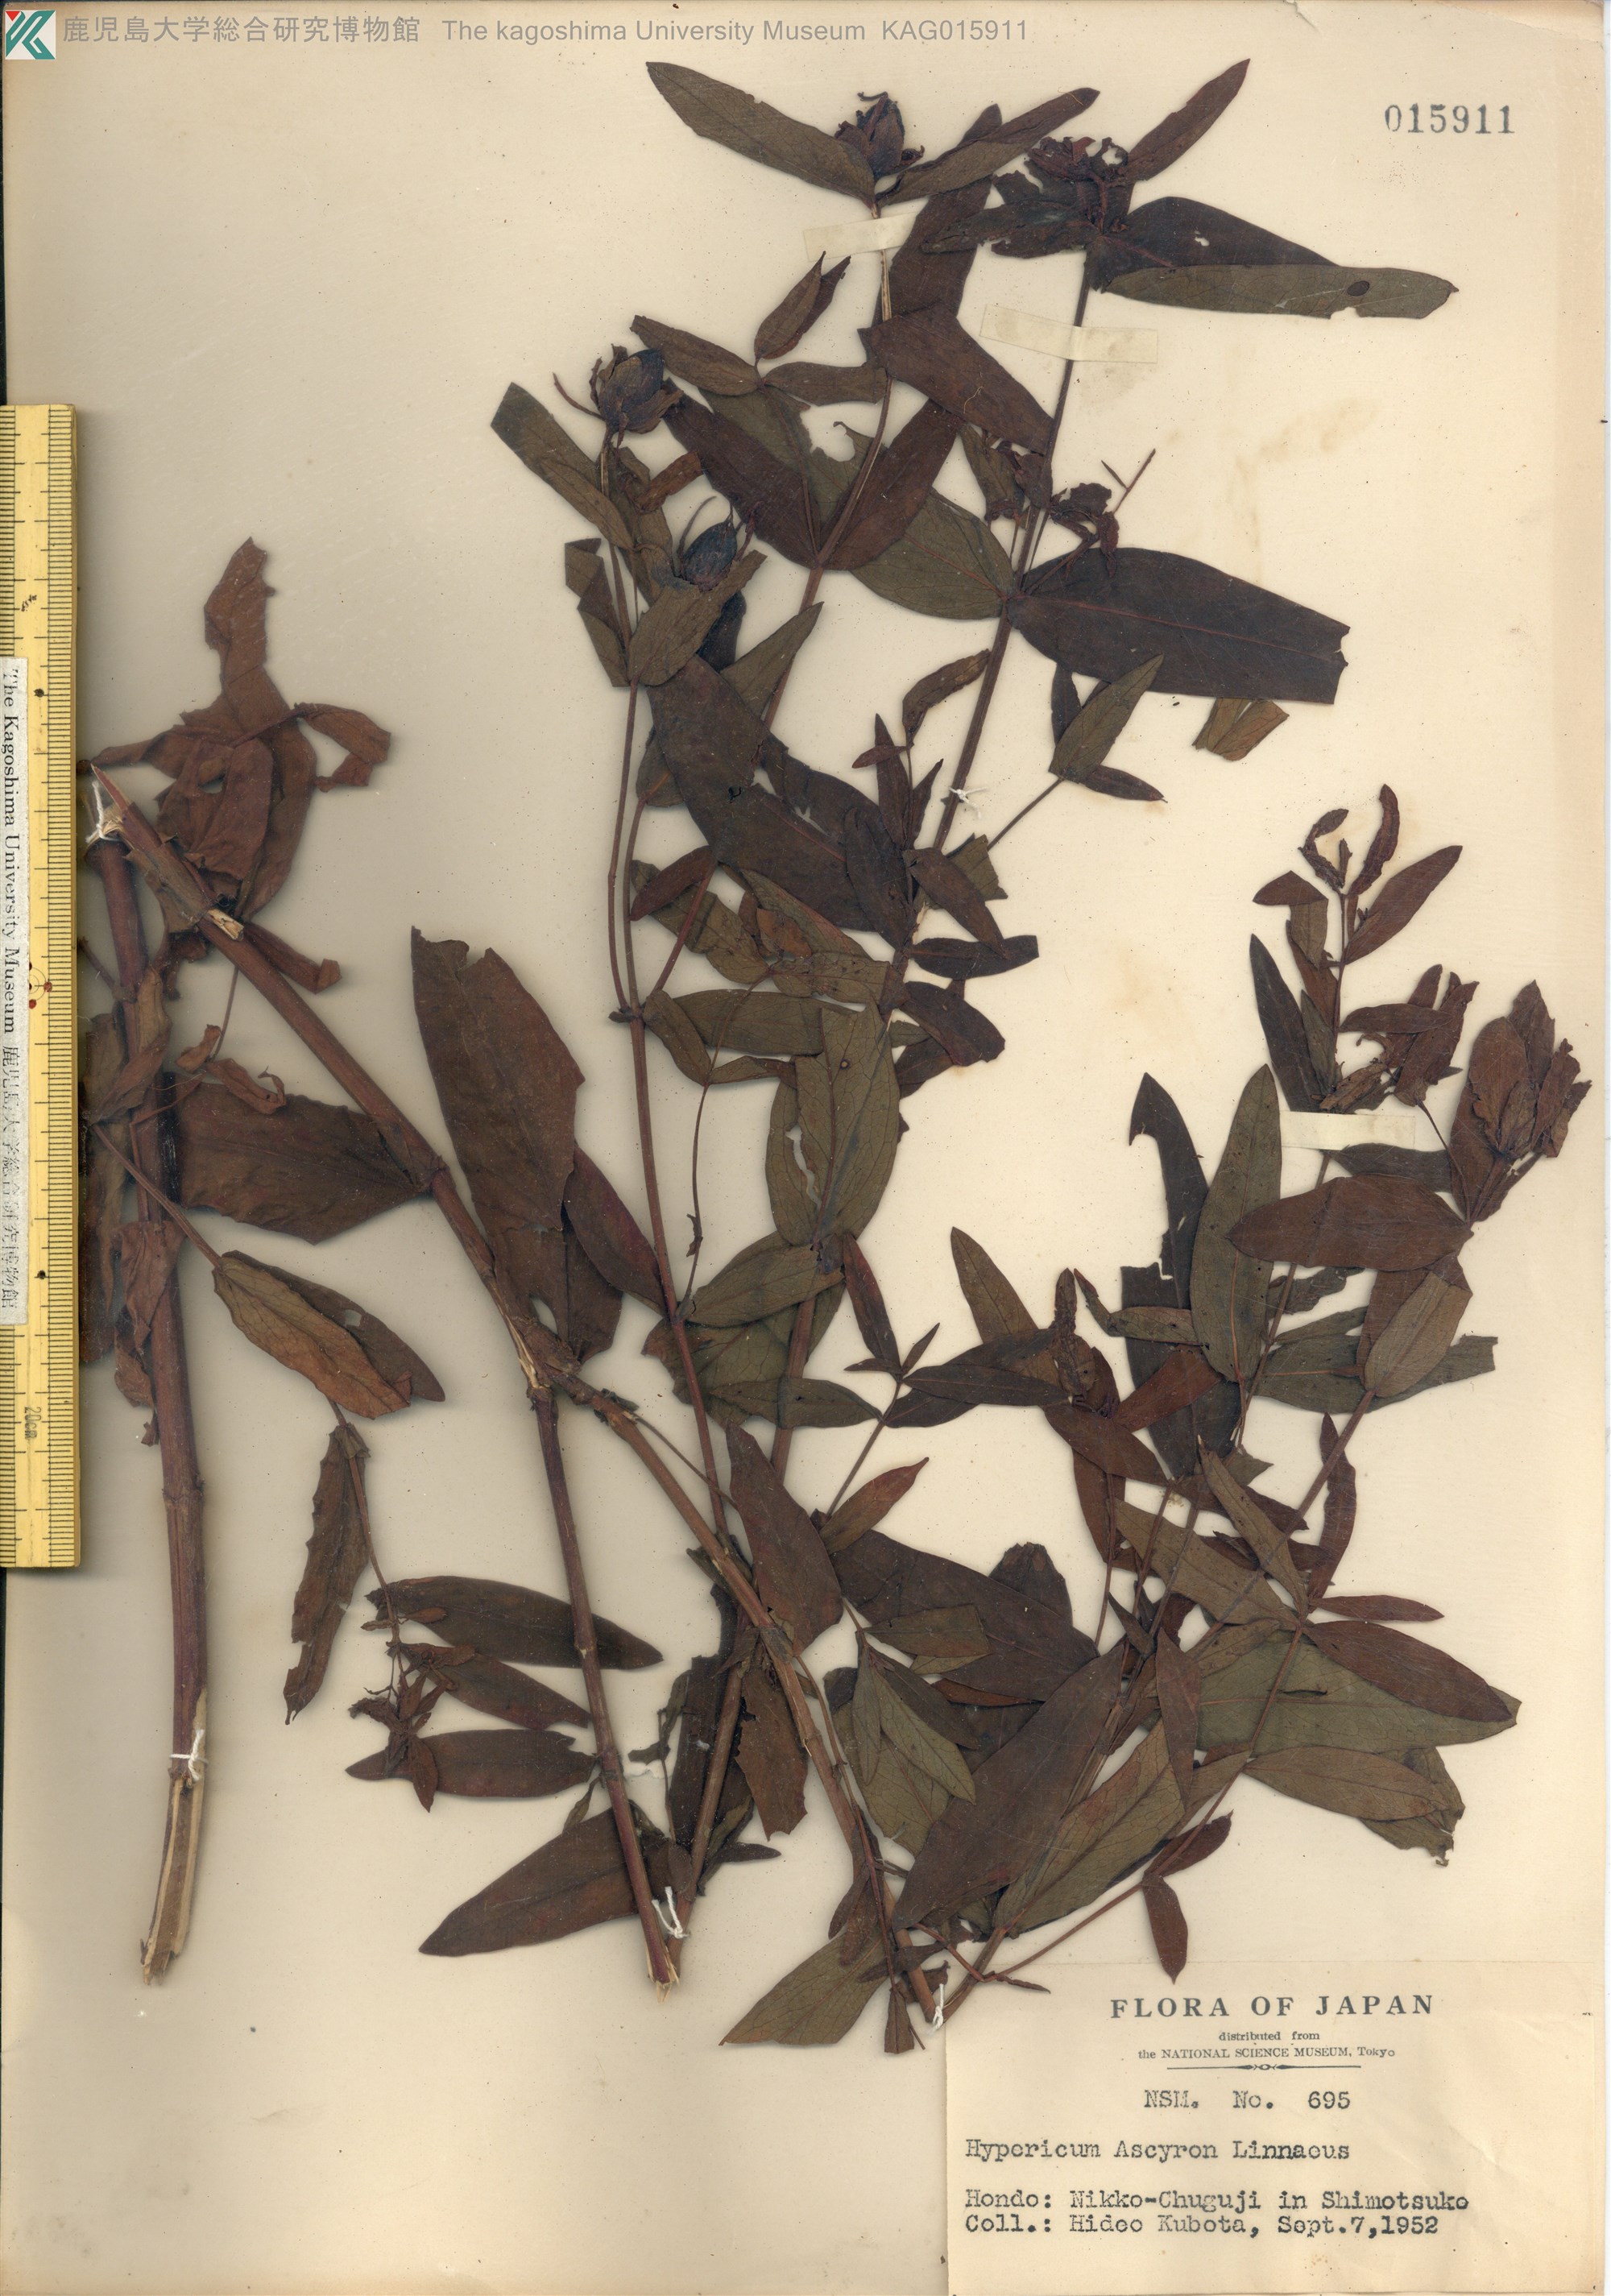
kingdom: Plantae
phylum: Tracheophyta
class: Magnoliopsida
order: Malpighiales
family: Hypericaceae
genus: Hypericum
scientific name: Hypericum ascyron
